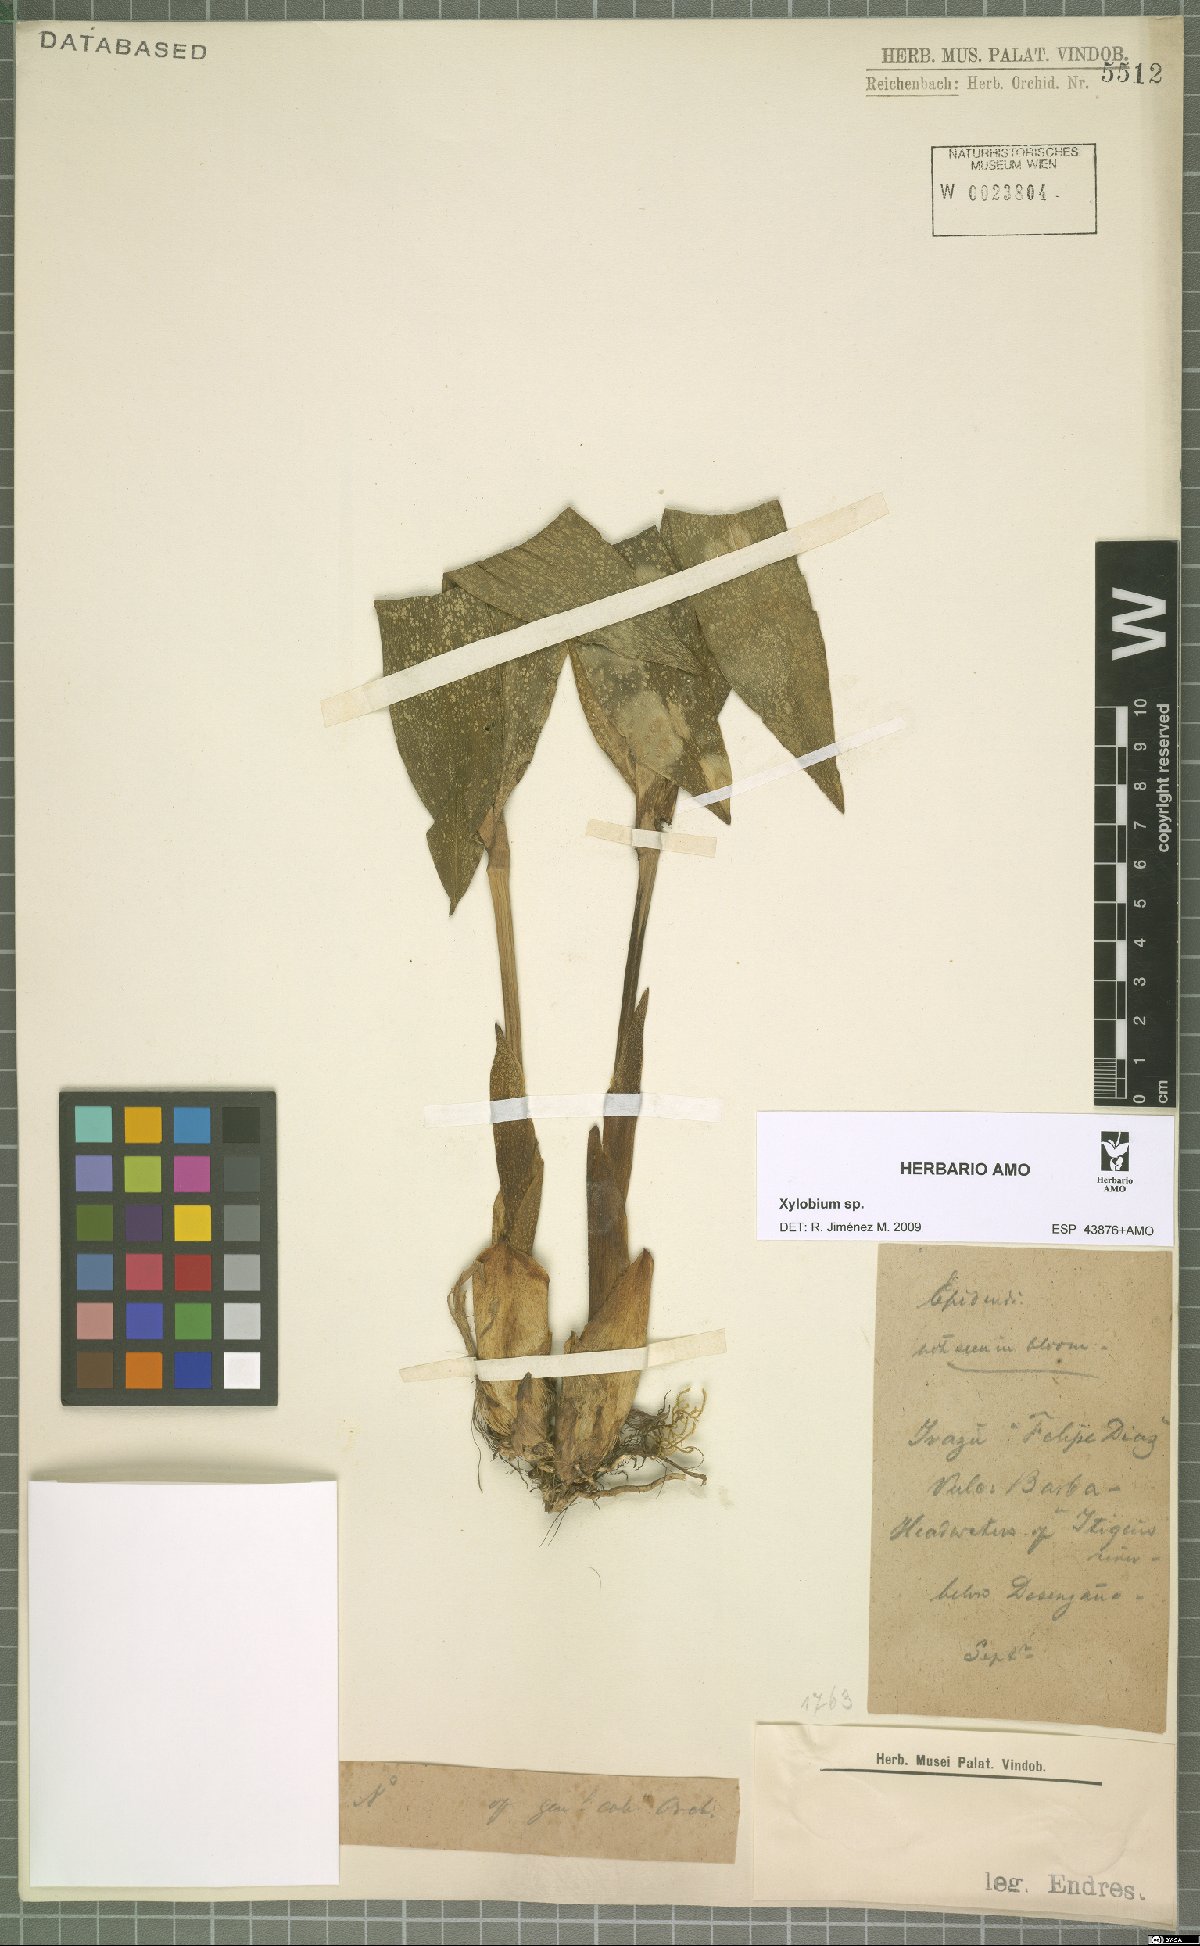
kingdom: Plantae
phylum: Tracheophyta
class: Liliopsida
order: Asparagales
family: Orchidaceae
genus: Xylobium
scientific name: Xylobium
